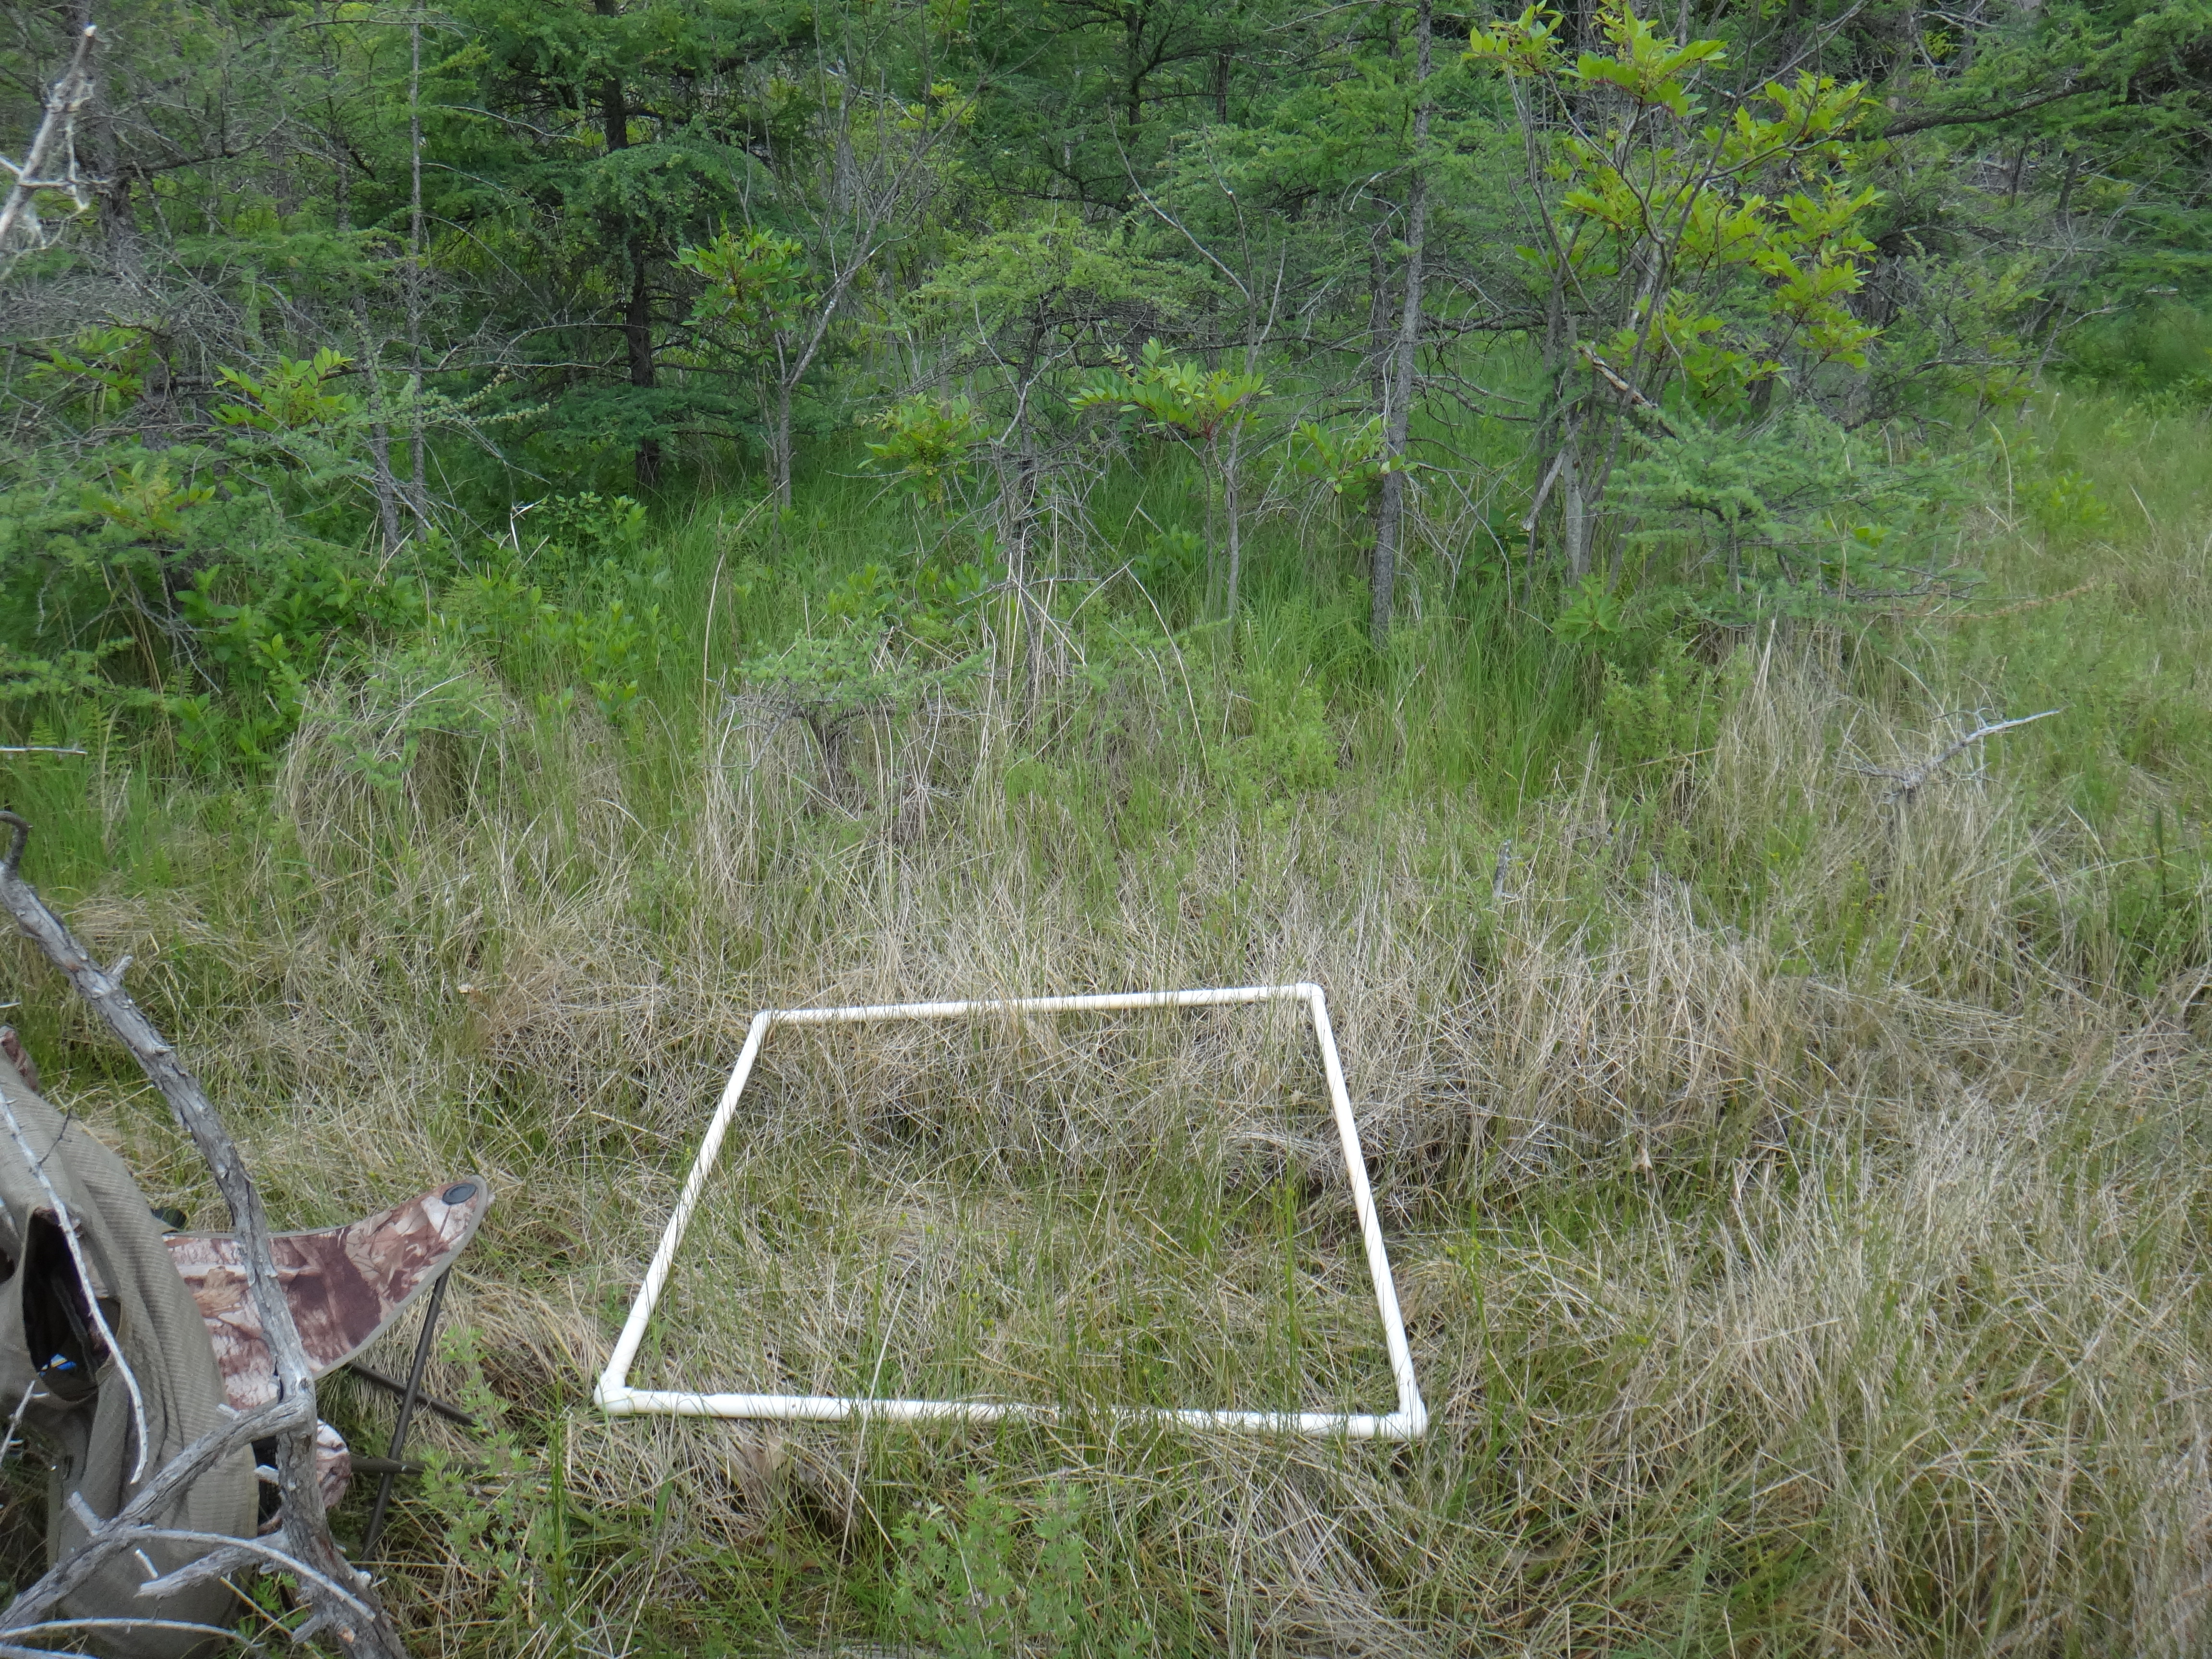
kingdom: Plantae
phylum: Tracheophyta
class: Liliopsida
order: Poales
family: Cyperaceae
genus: Schoenoplectus
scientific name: Schoenoplectus pungens
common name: Sharp club-rush
